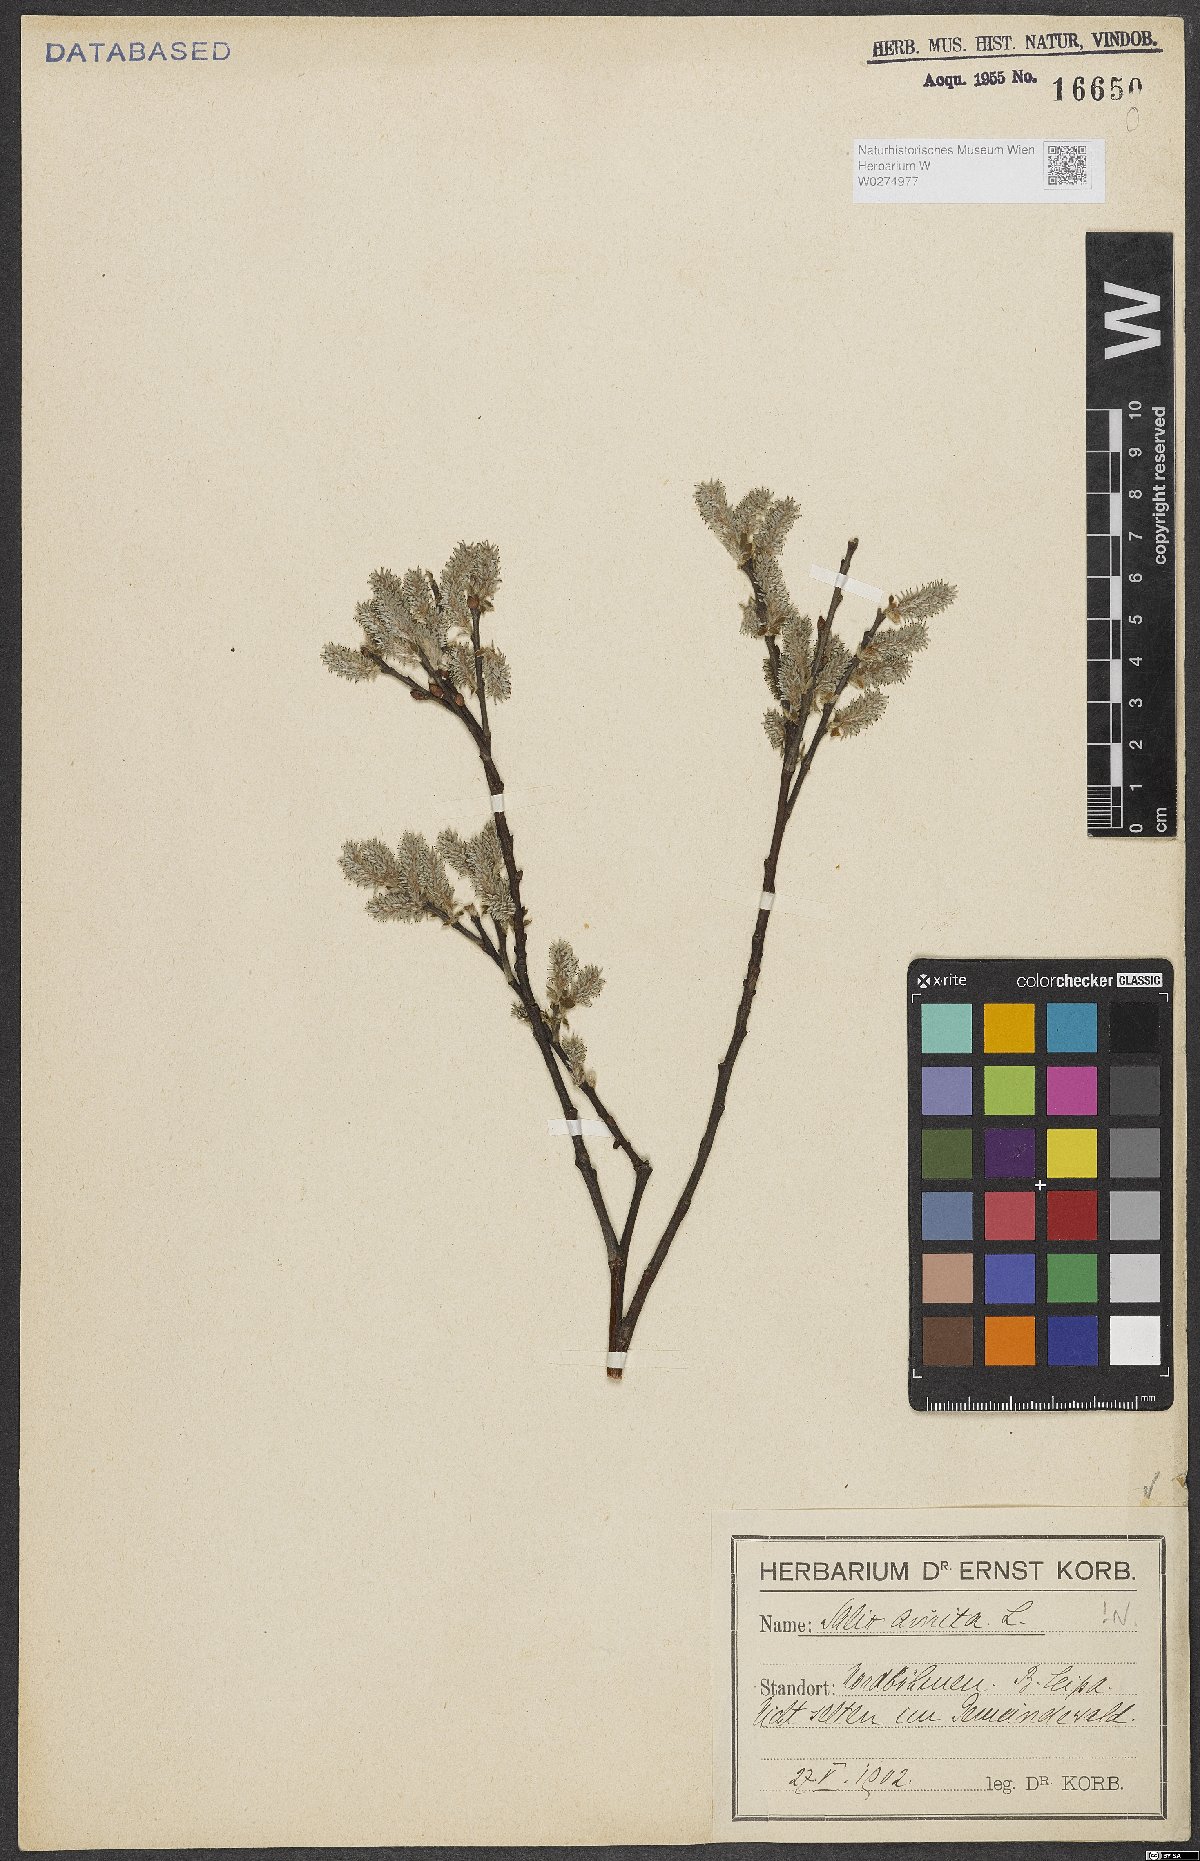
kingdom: Plantae
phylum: Tracheophyta
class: Magnoliopsida
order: Malpighiales
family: Salicaceae
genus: Salix
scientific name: Salix aurita
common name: Eared willow
